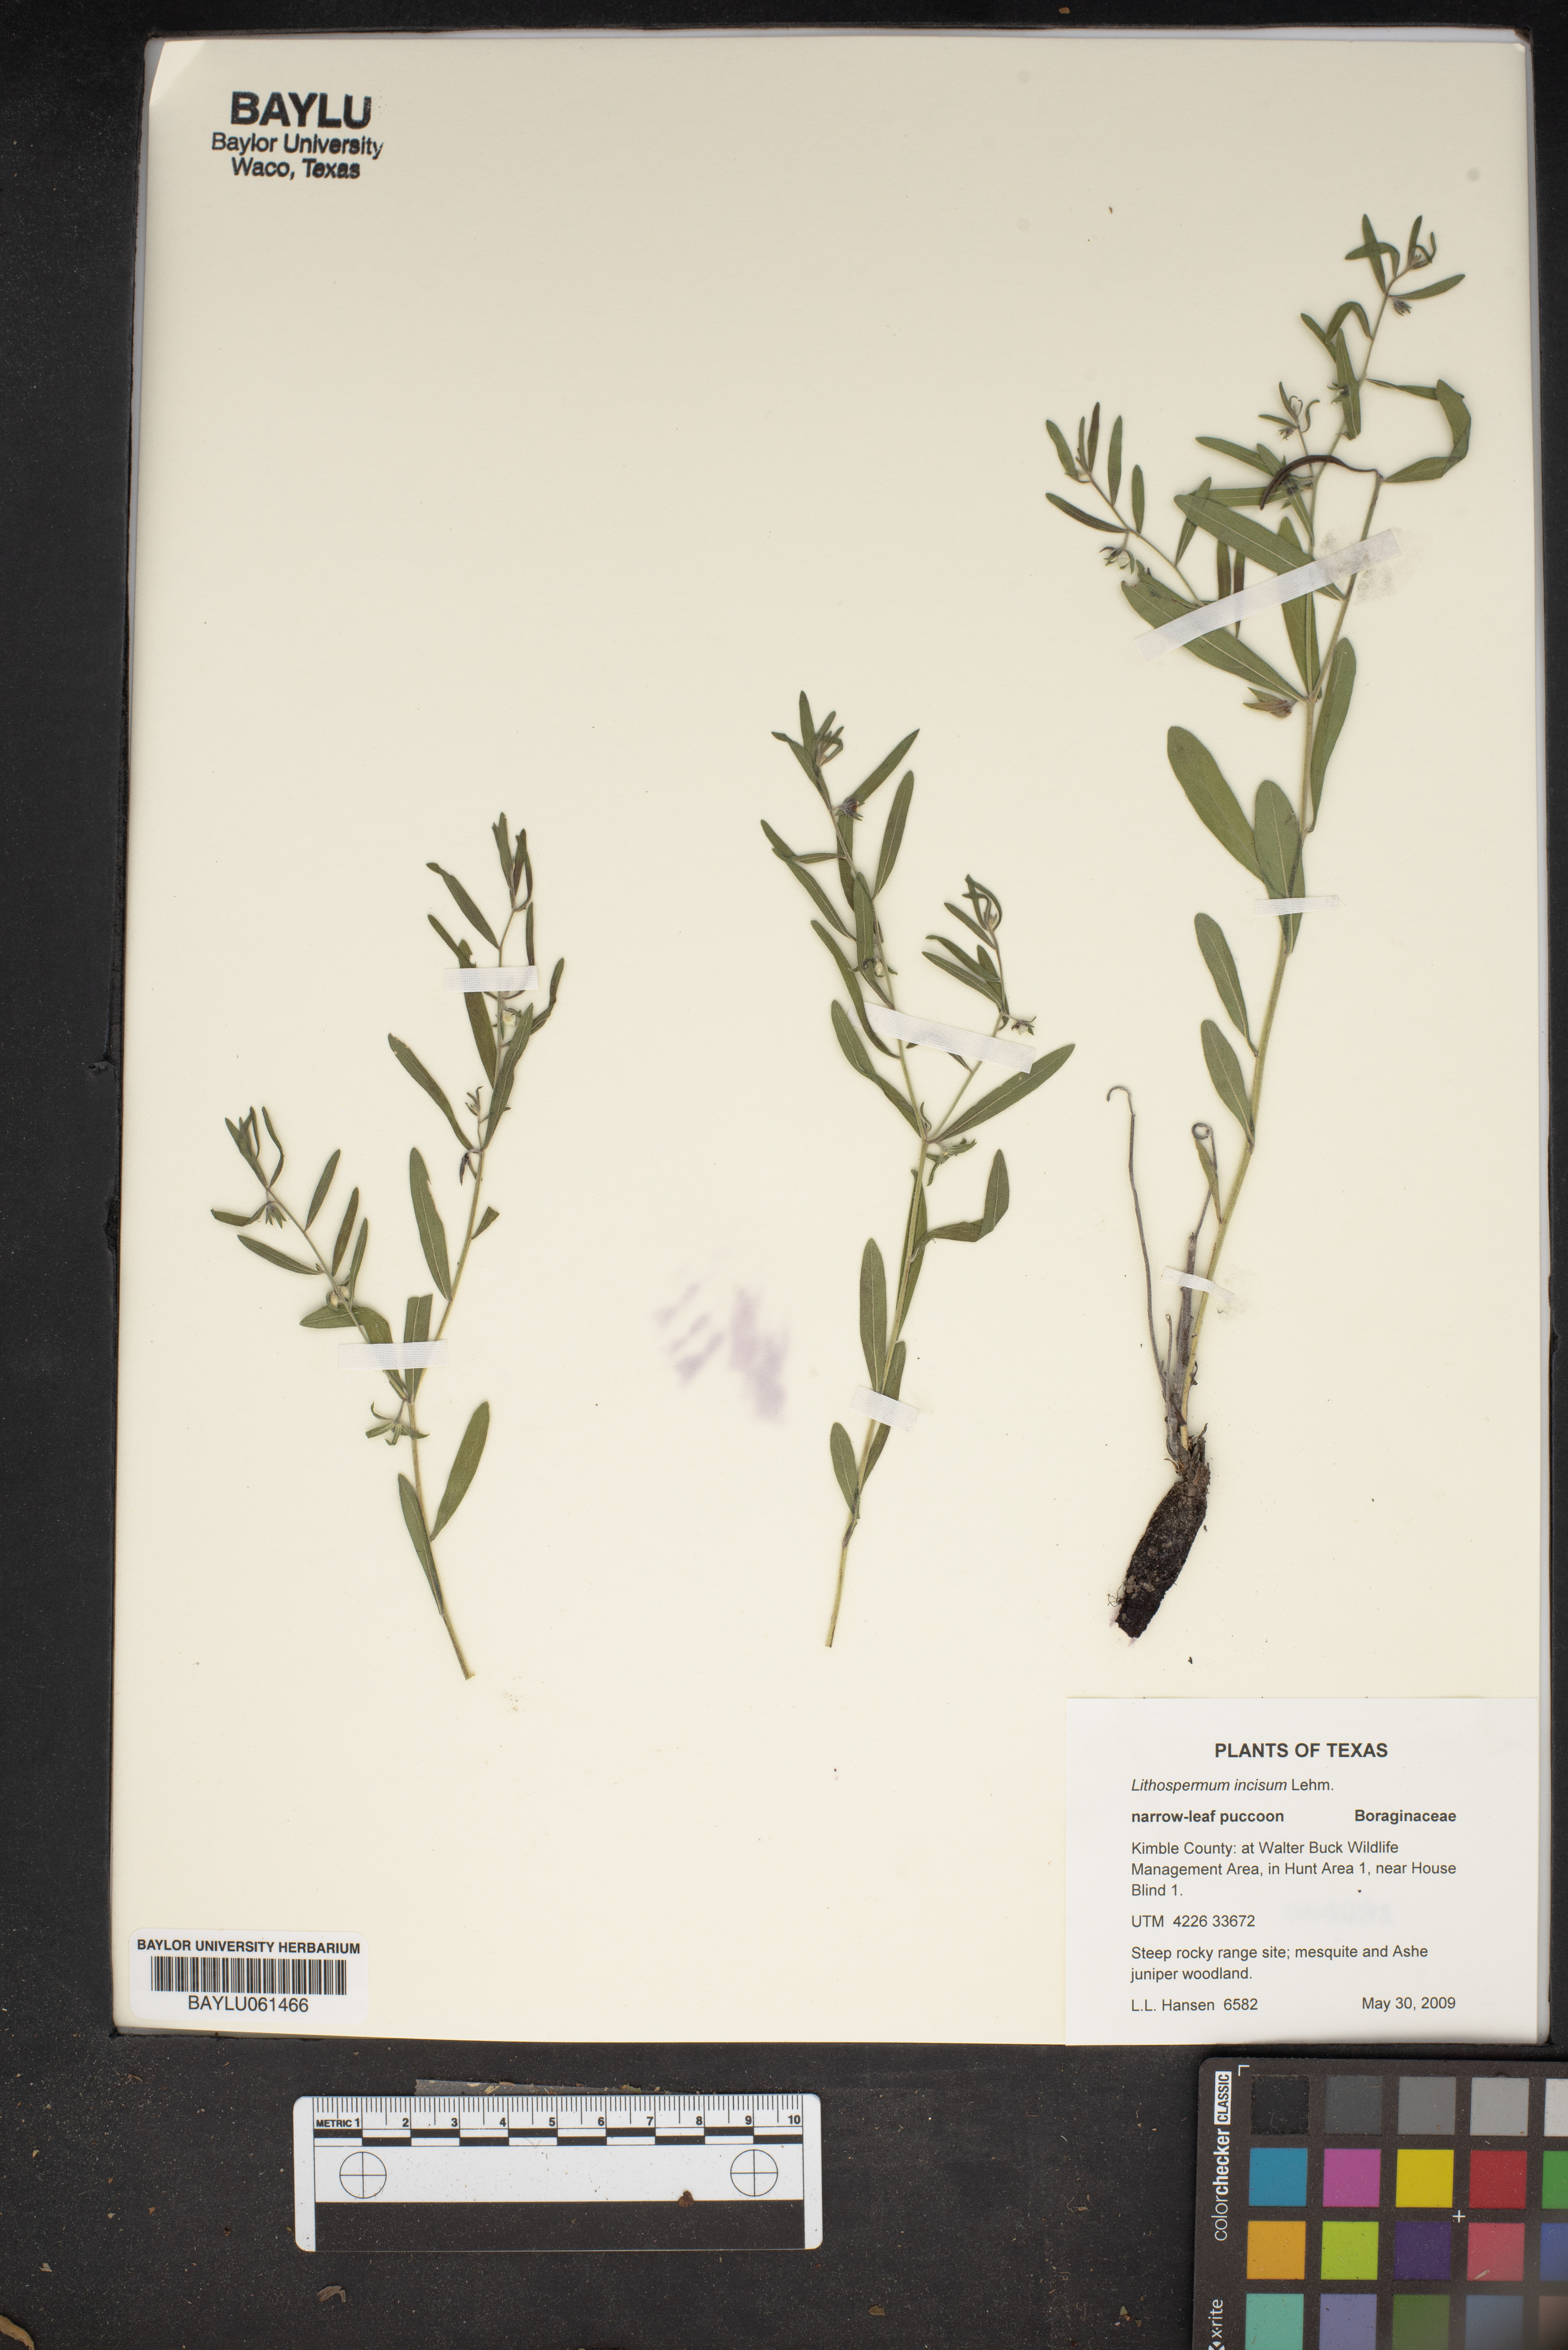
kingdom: Plantae
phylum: Tracheophyta
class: Magnoliopsida
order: Boraginales
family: Boraginaceae
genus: Lithospermum
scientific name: Lithospermum incisum
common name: Fringed gromwell
